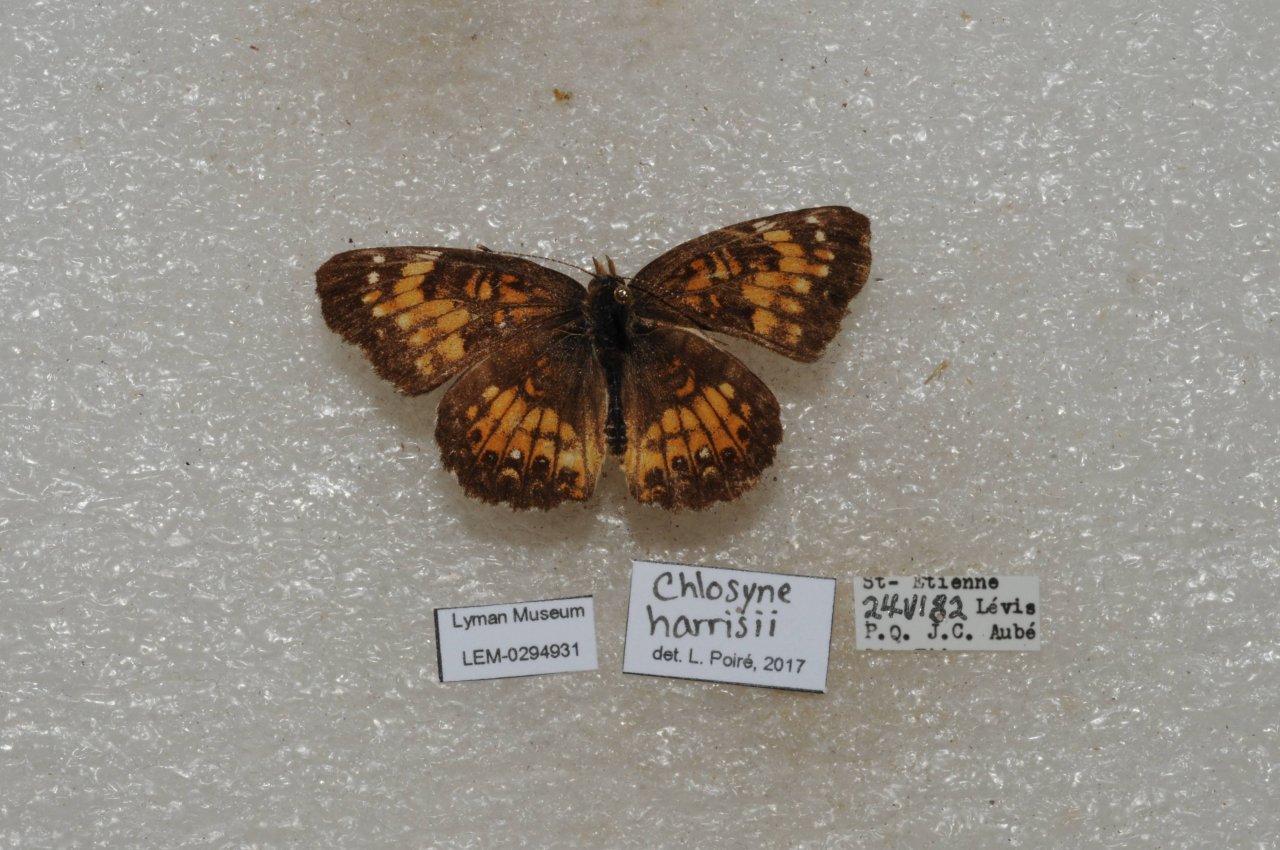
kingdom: Animalia
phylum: Arthropoda
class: Insecta
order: Lepidoptera
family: Nymphalidae
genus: Chlosyne
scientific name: Chlosyne harrisii
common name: Harris's Checkerspot
